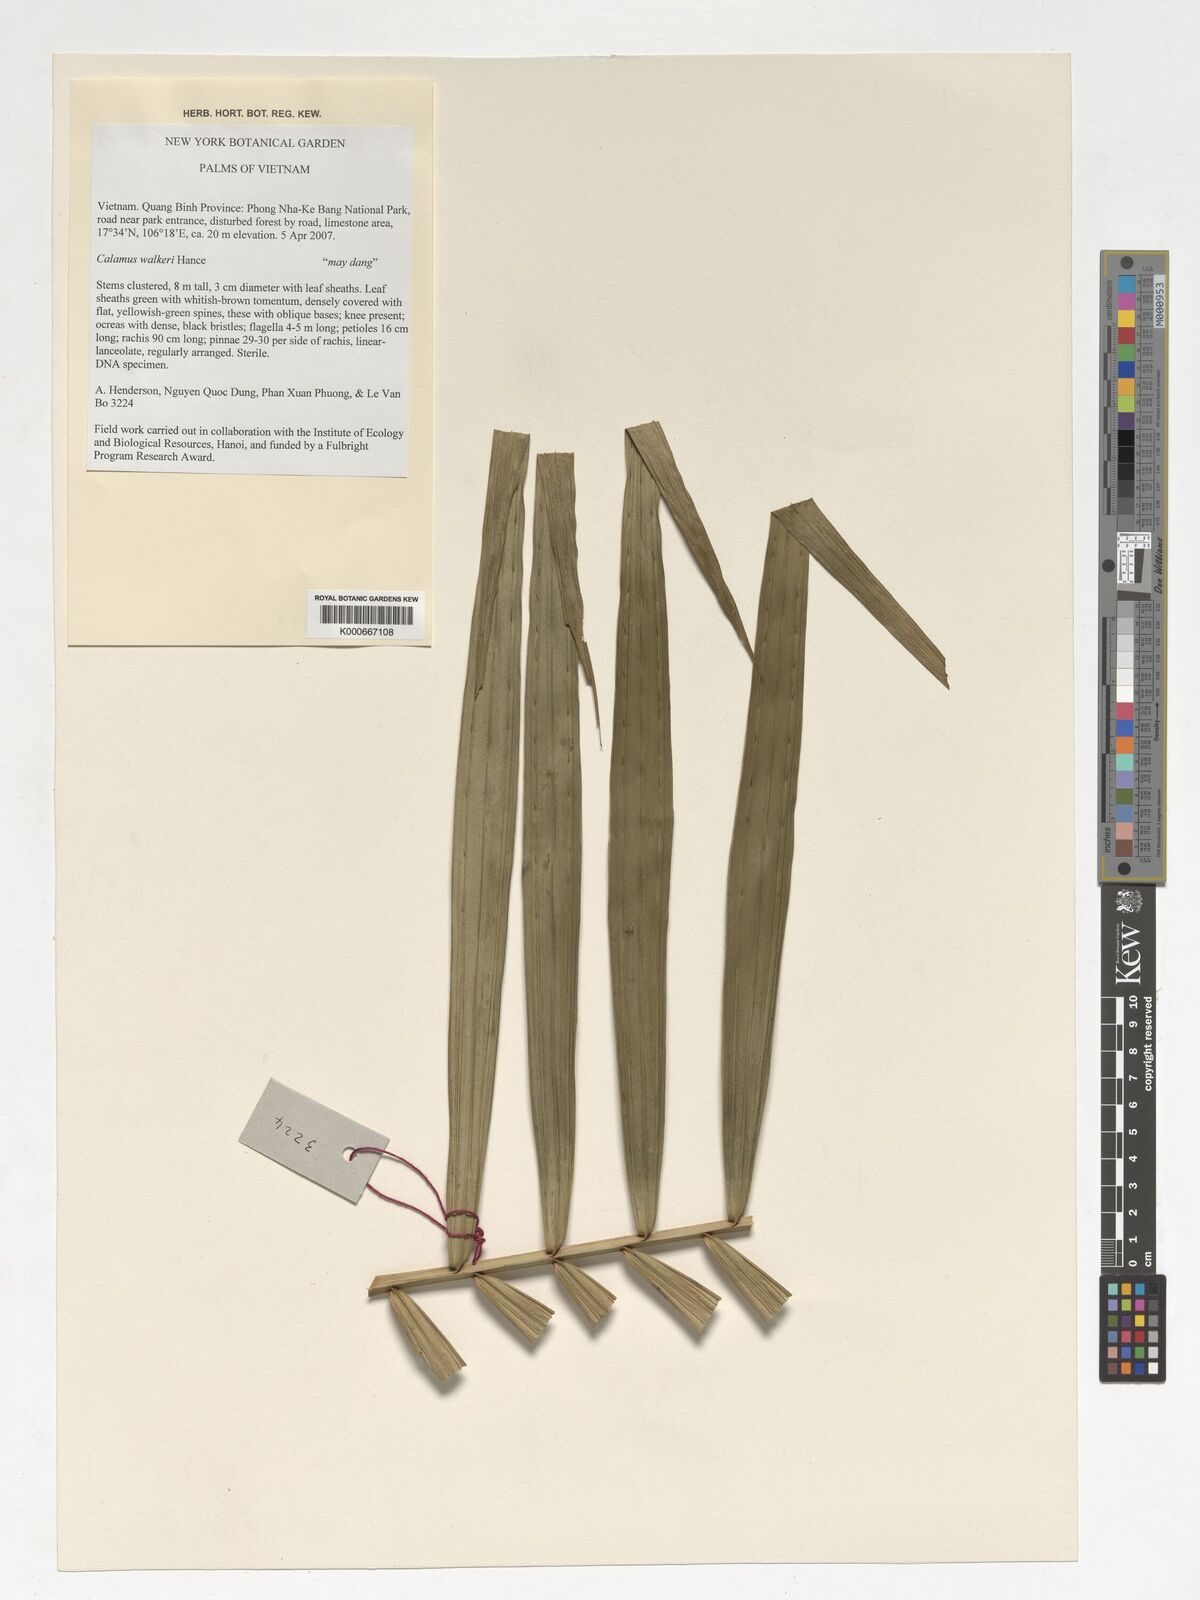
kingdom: Plantae
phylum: Tracheophyta
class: Liliopsida
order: Arecales
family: Arecaceae
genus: Calamus
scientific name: Calamus walkeri
